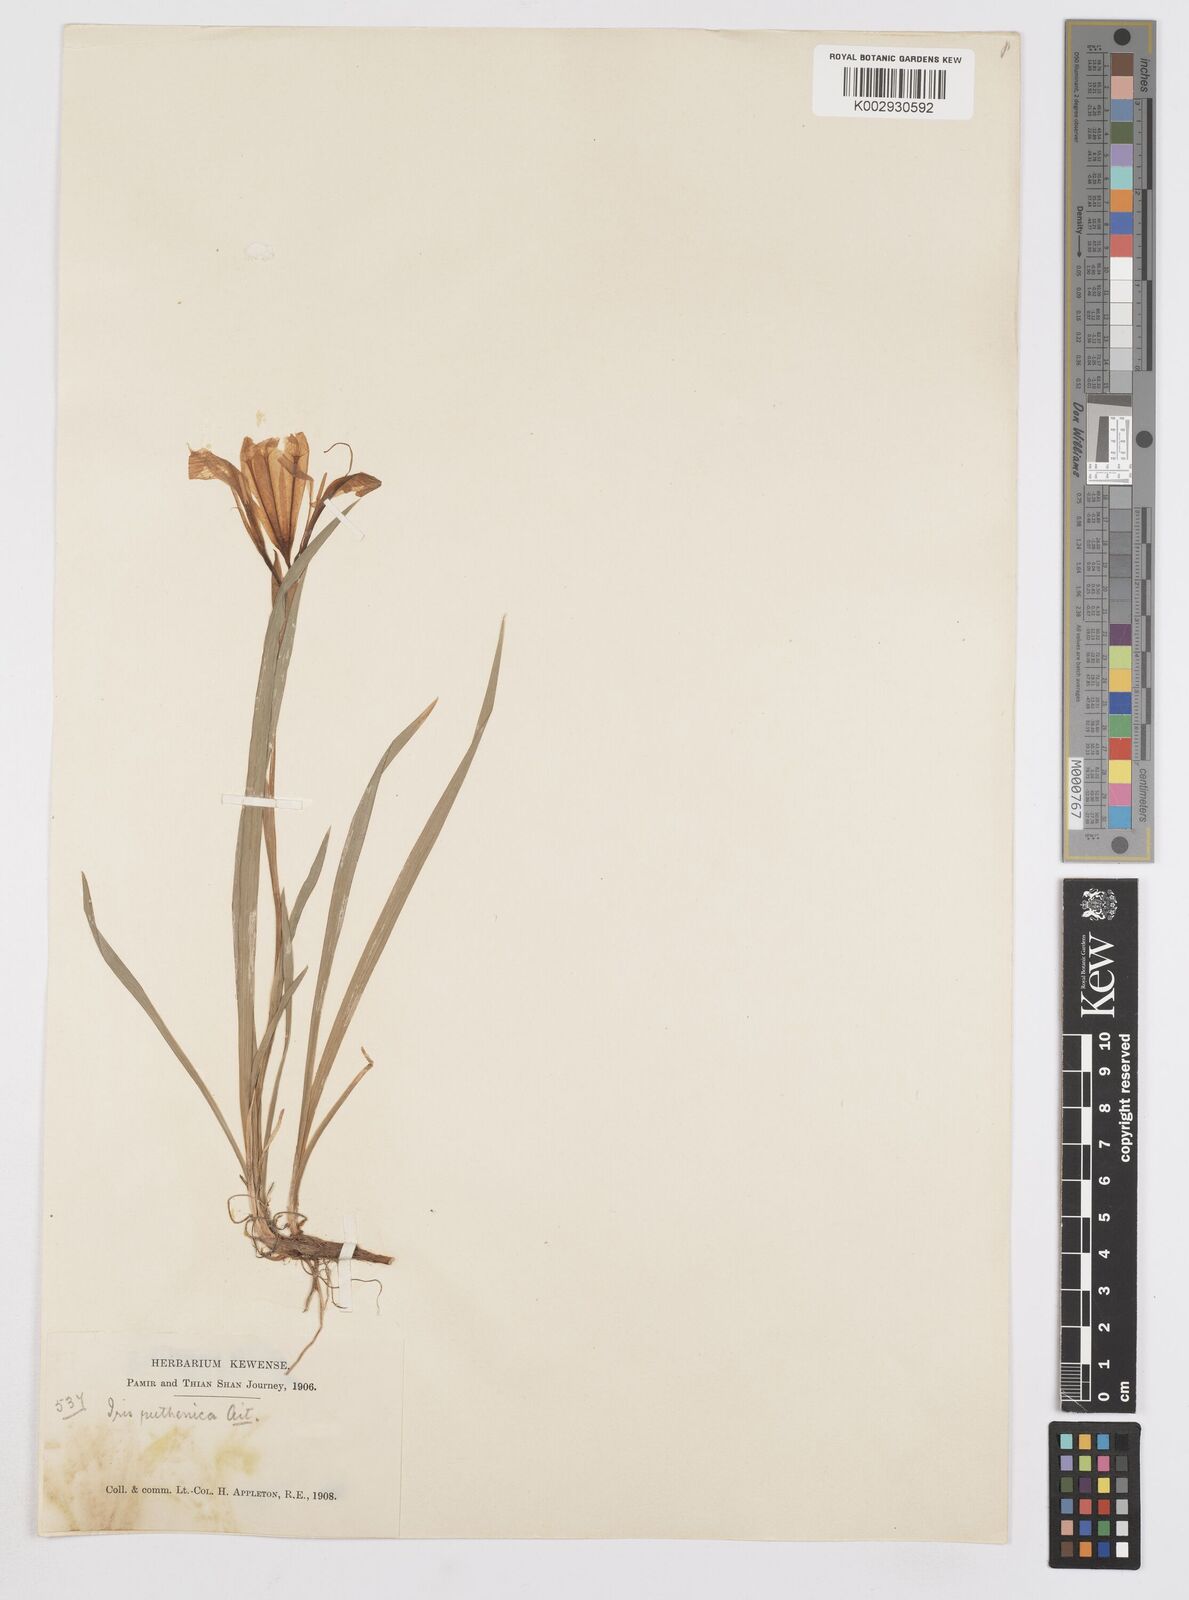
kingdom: Plantae
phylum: Tracheophyta
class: Liliopsida
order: Asparagales
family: Iridaceae
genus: Iris
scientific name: Iris
